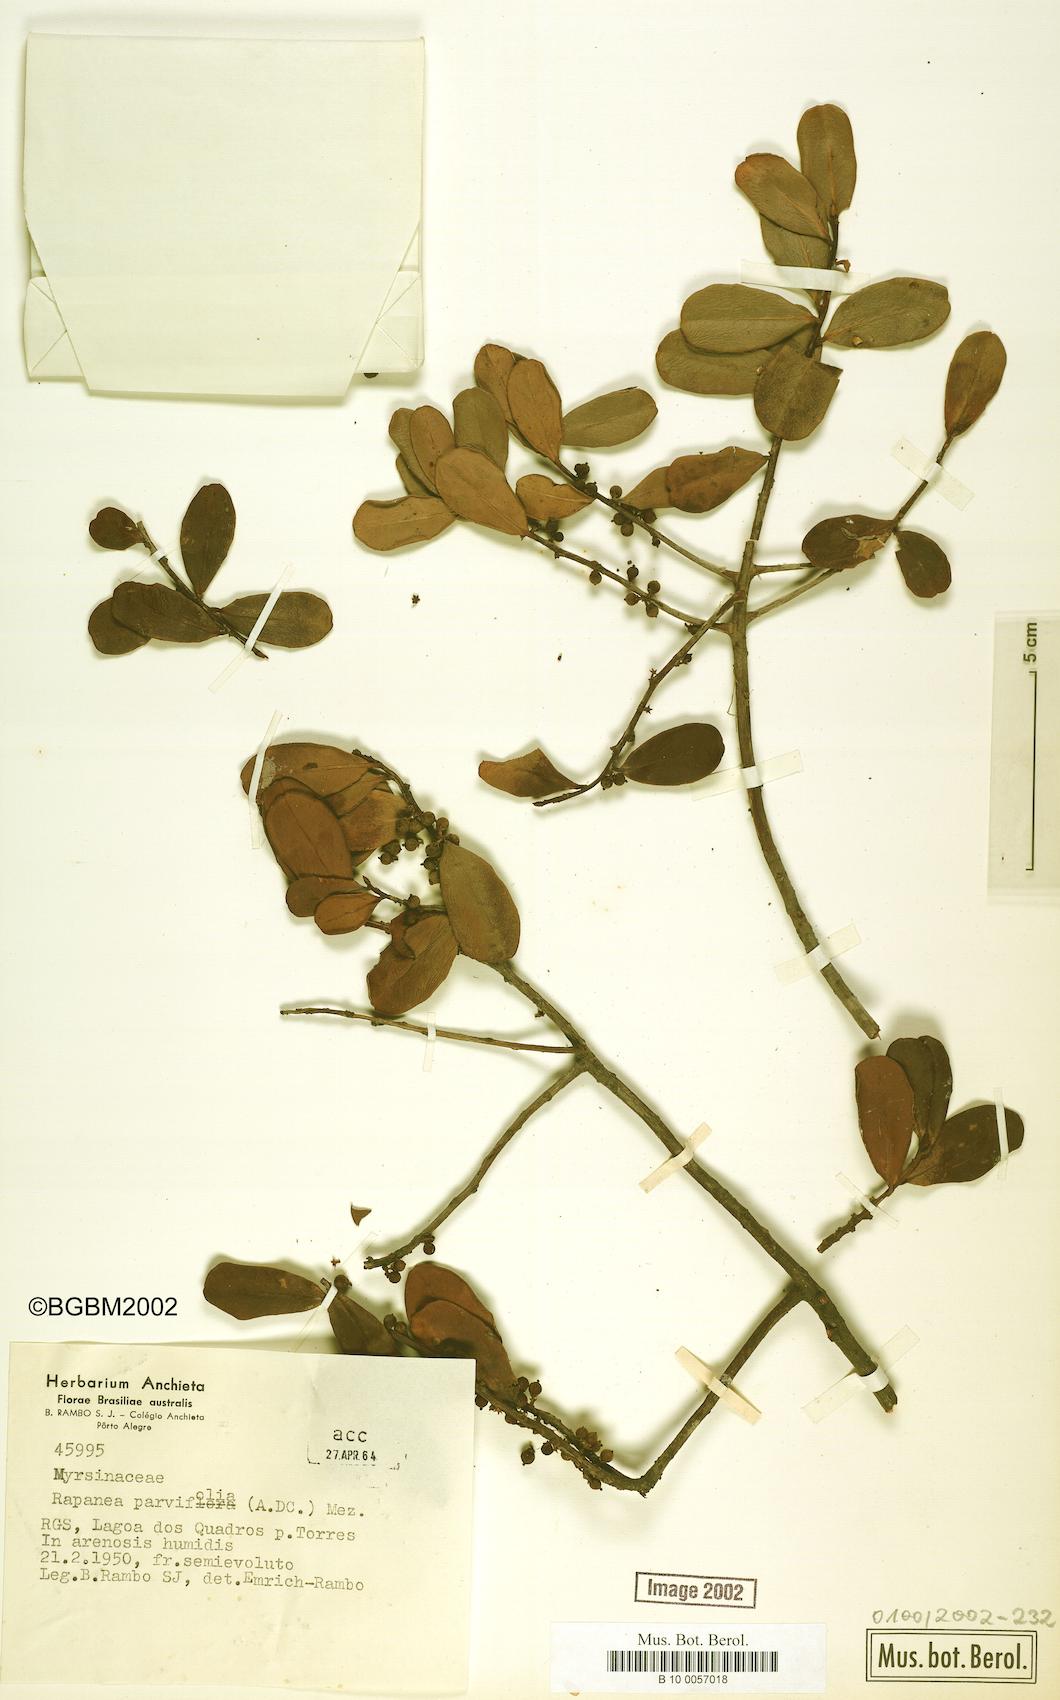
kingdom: Plantae
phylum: Tracheophyta
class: Magnoliopsida
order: Ericales
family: Primulaceae
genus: Myrsine
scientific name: Myrsine parvifolia
